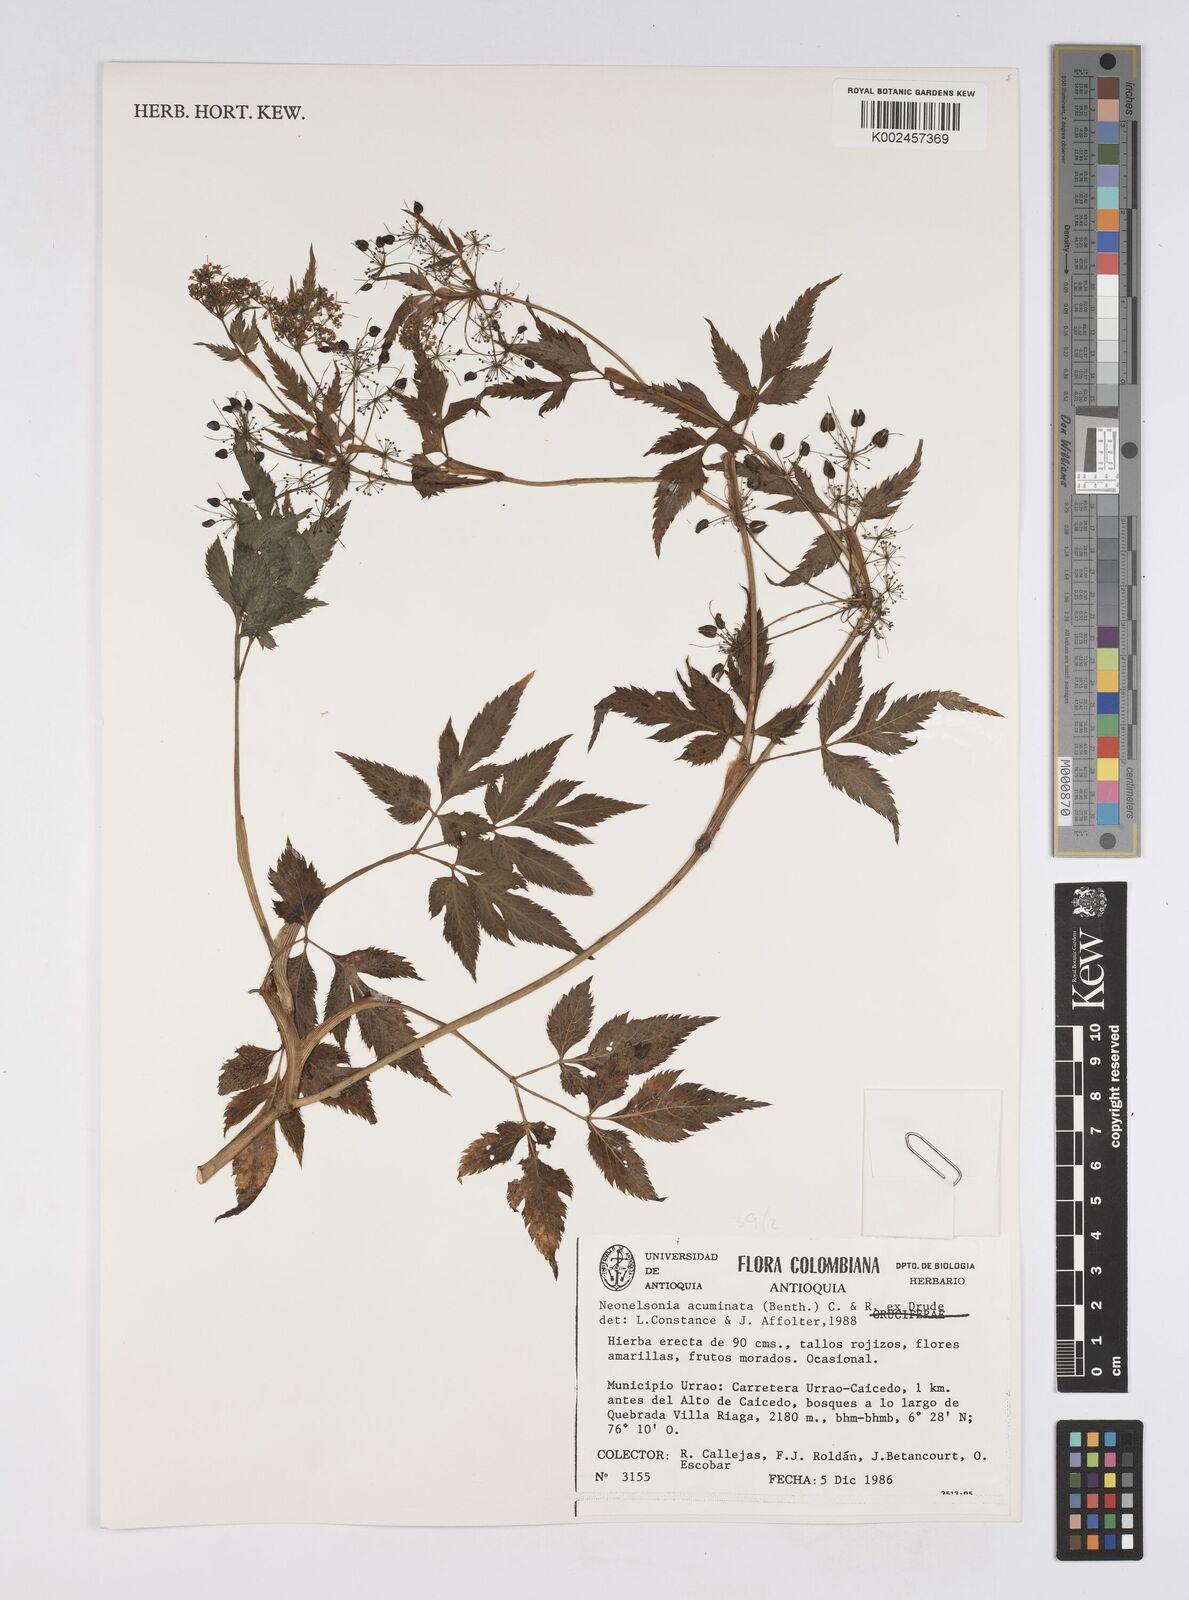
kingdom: Plantae
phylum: Tracheophyta
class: Magnoliopsida
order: Apiales
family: Apiaceae
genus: Neonelsonia
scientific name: Neonelsonia acuminata
